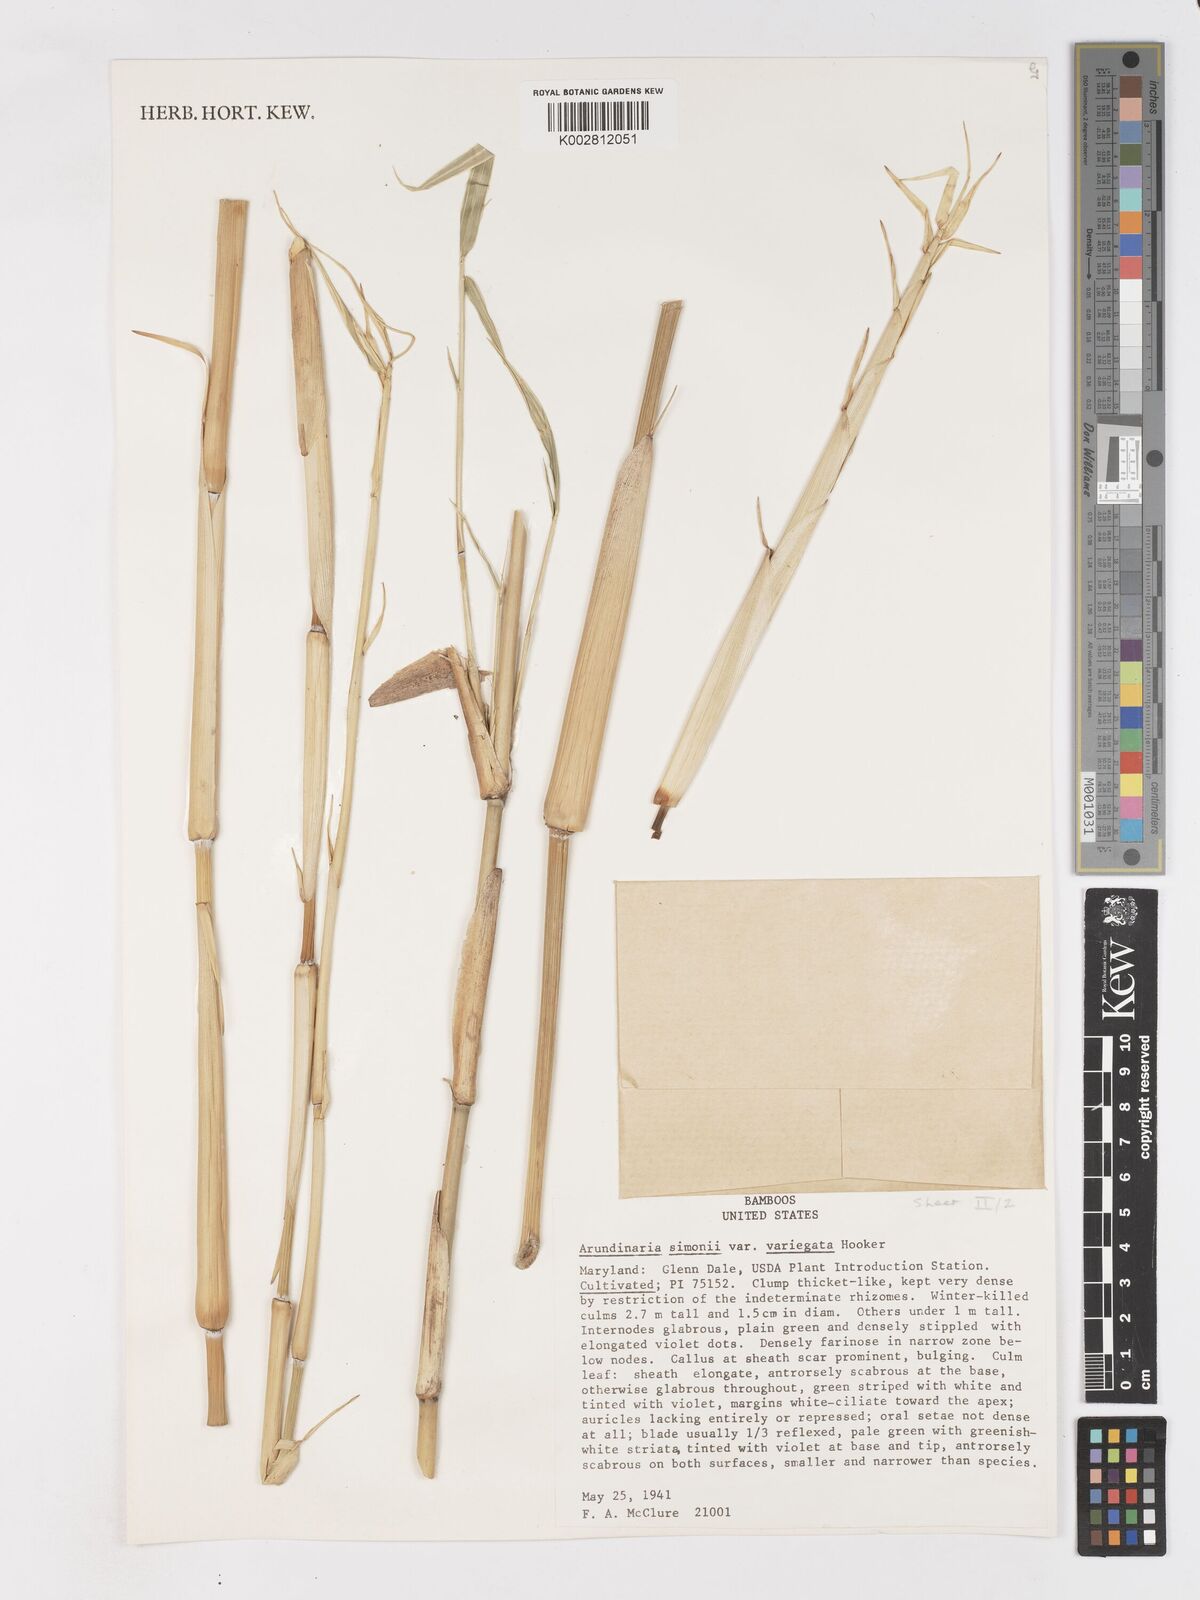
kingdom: Plantae
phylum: Tracheophyta
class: Liliopsida
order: Poales
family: Poaceae
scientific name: Poaceae
